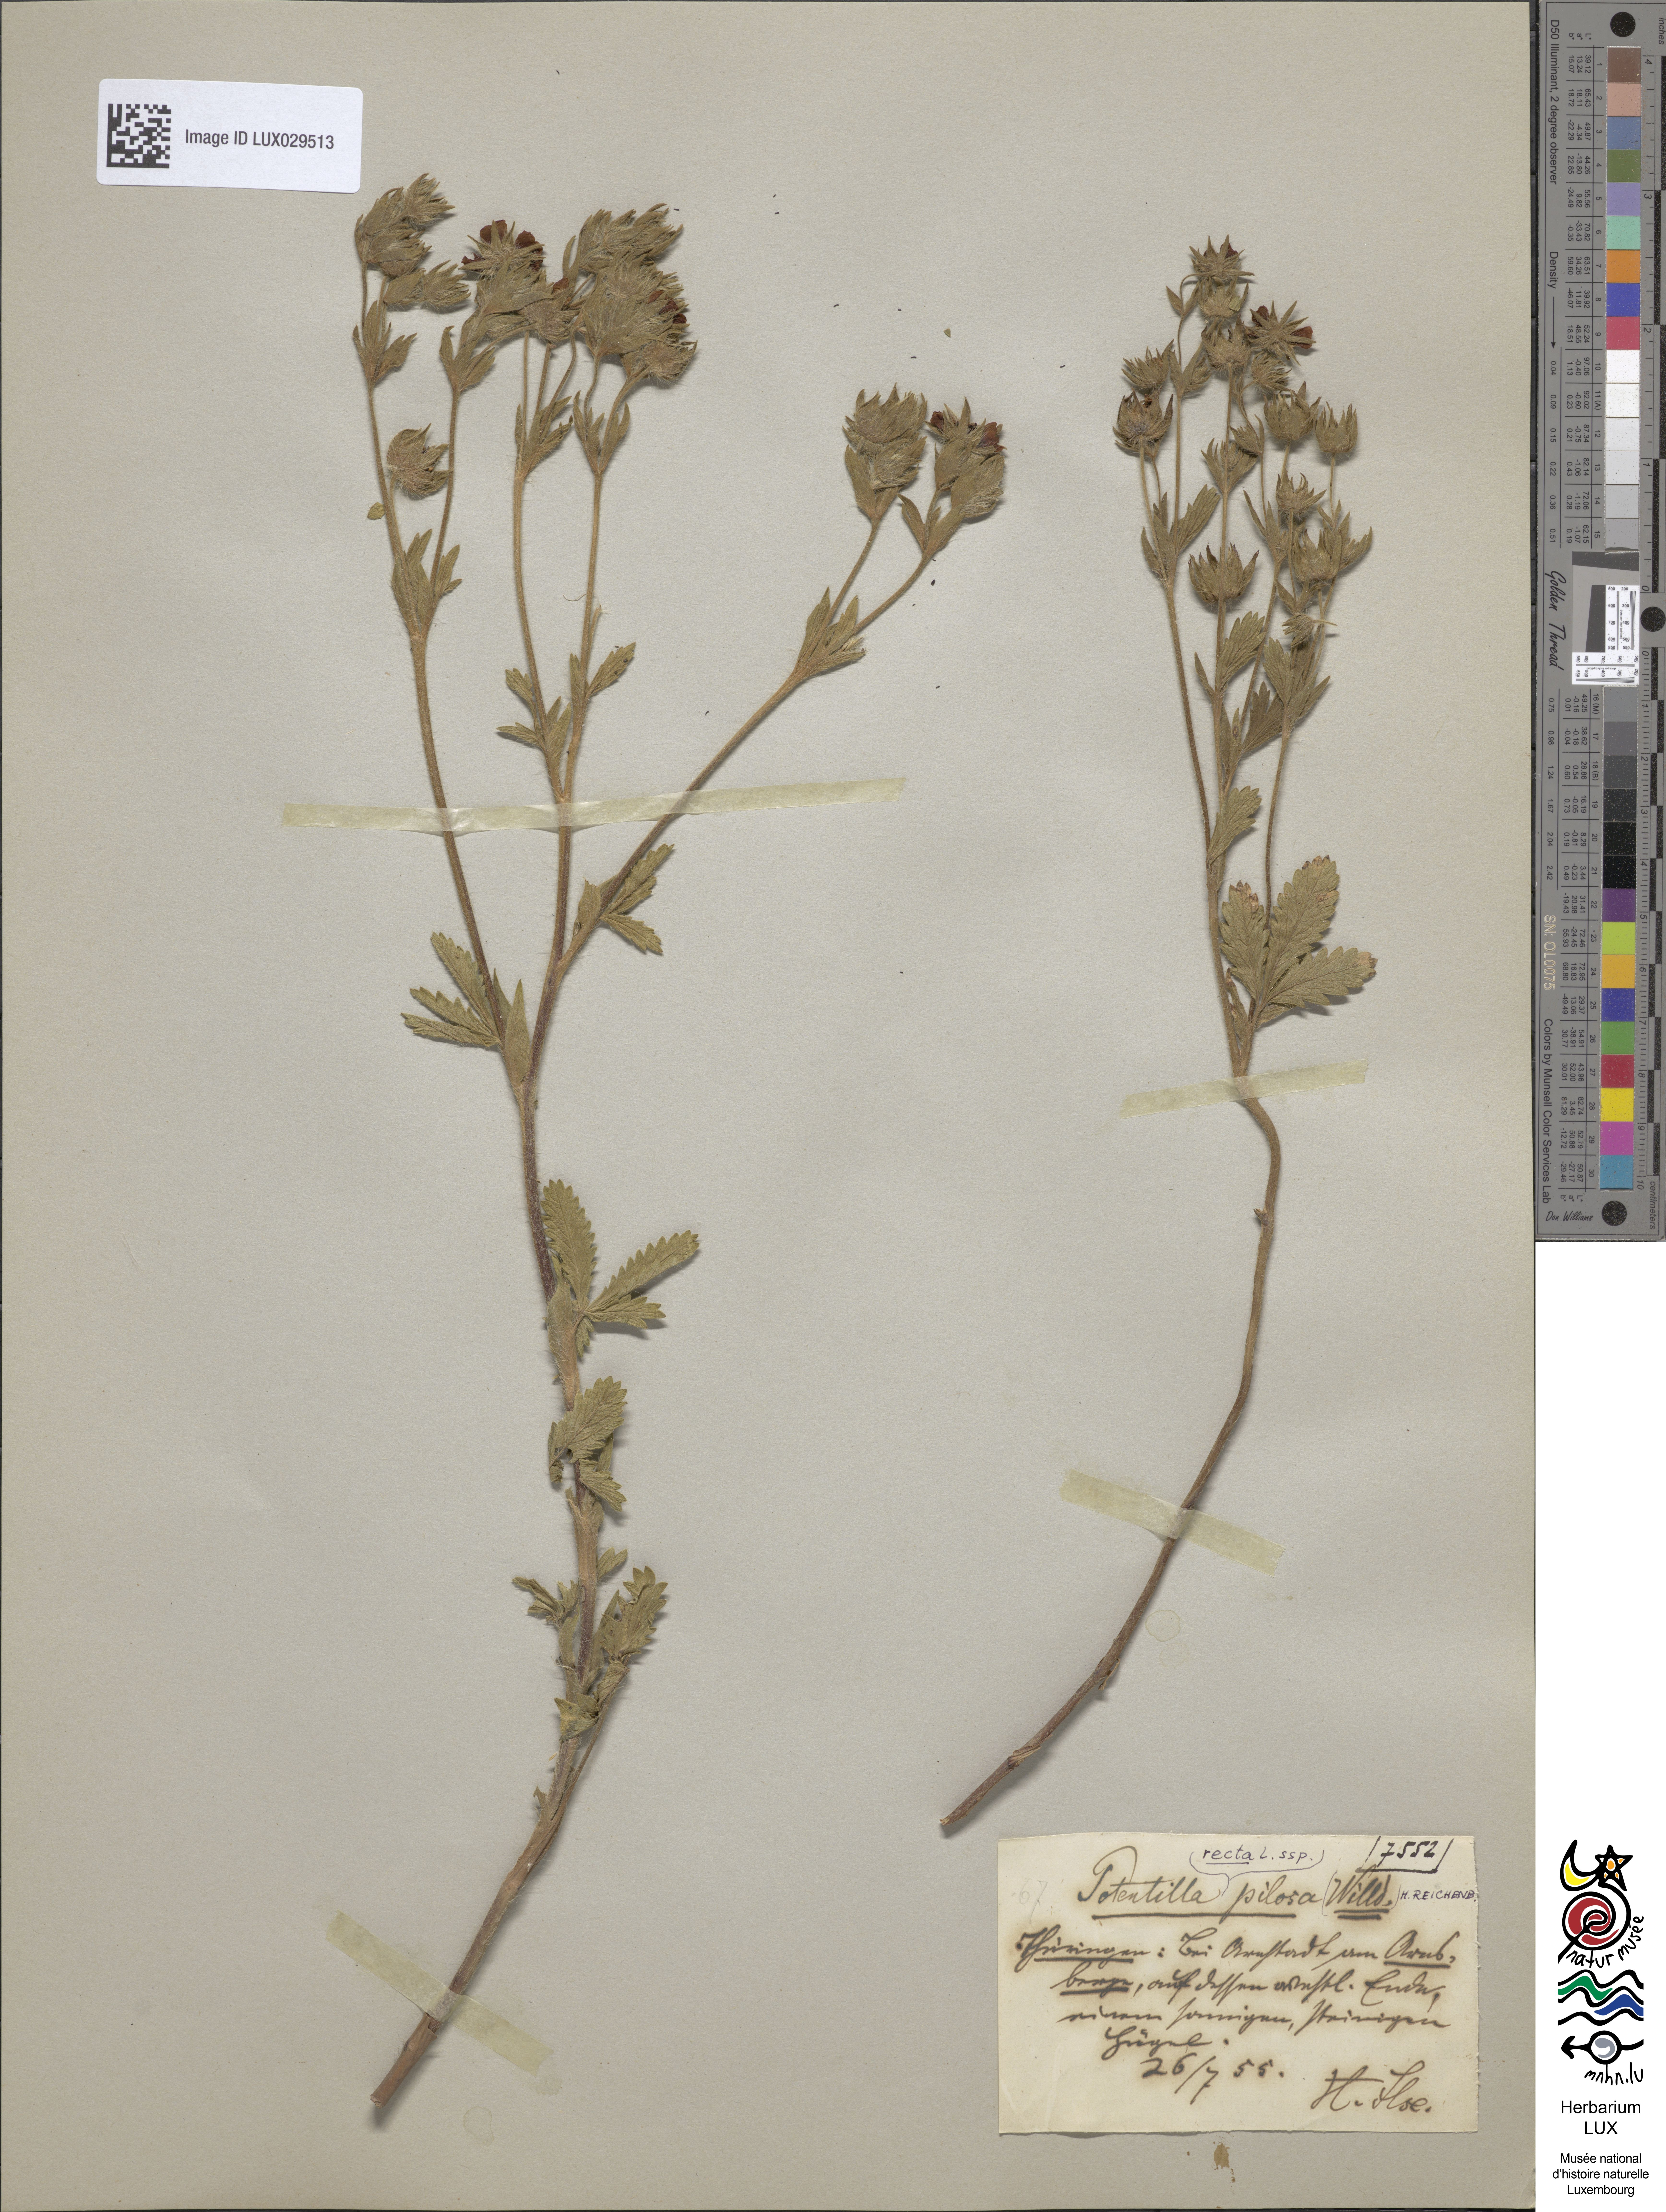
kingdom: Plantae
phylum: Tracheophyta
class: Magnoliopsida
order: Rosales
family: Rosaceae
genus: Potentilla
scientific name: Potentilla recta
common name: Sulphur cinquefoil
